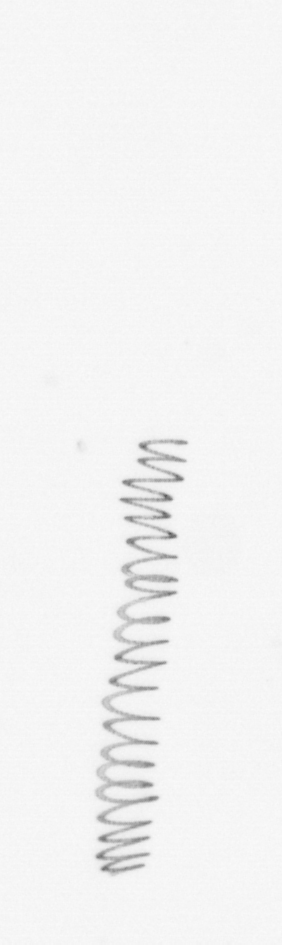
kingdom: Chromista
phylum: Ochrophyta
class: Bacillariophyceae
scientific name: Bacillariophyceae
